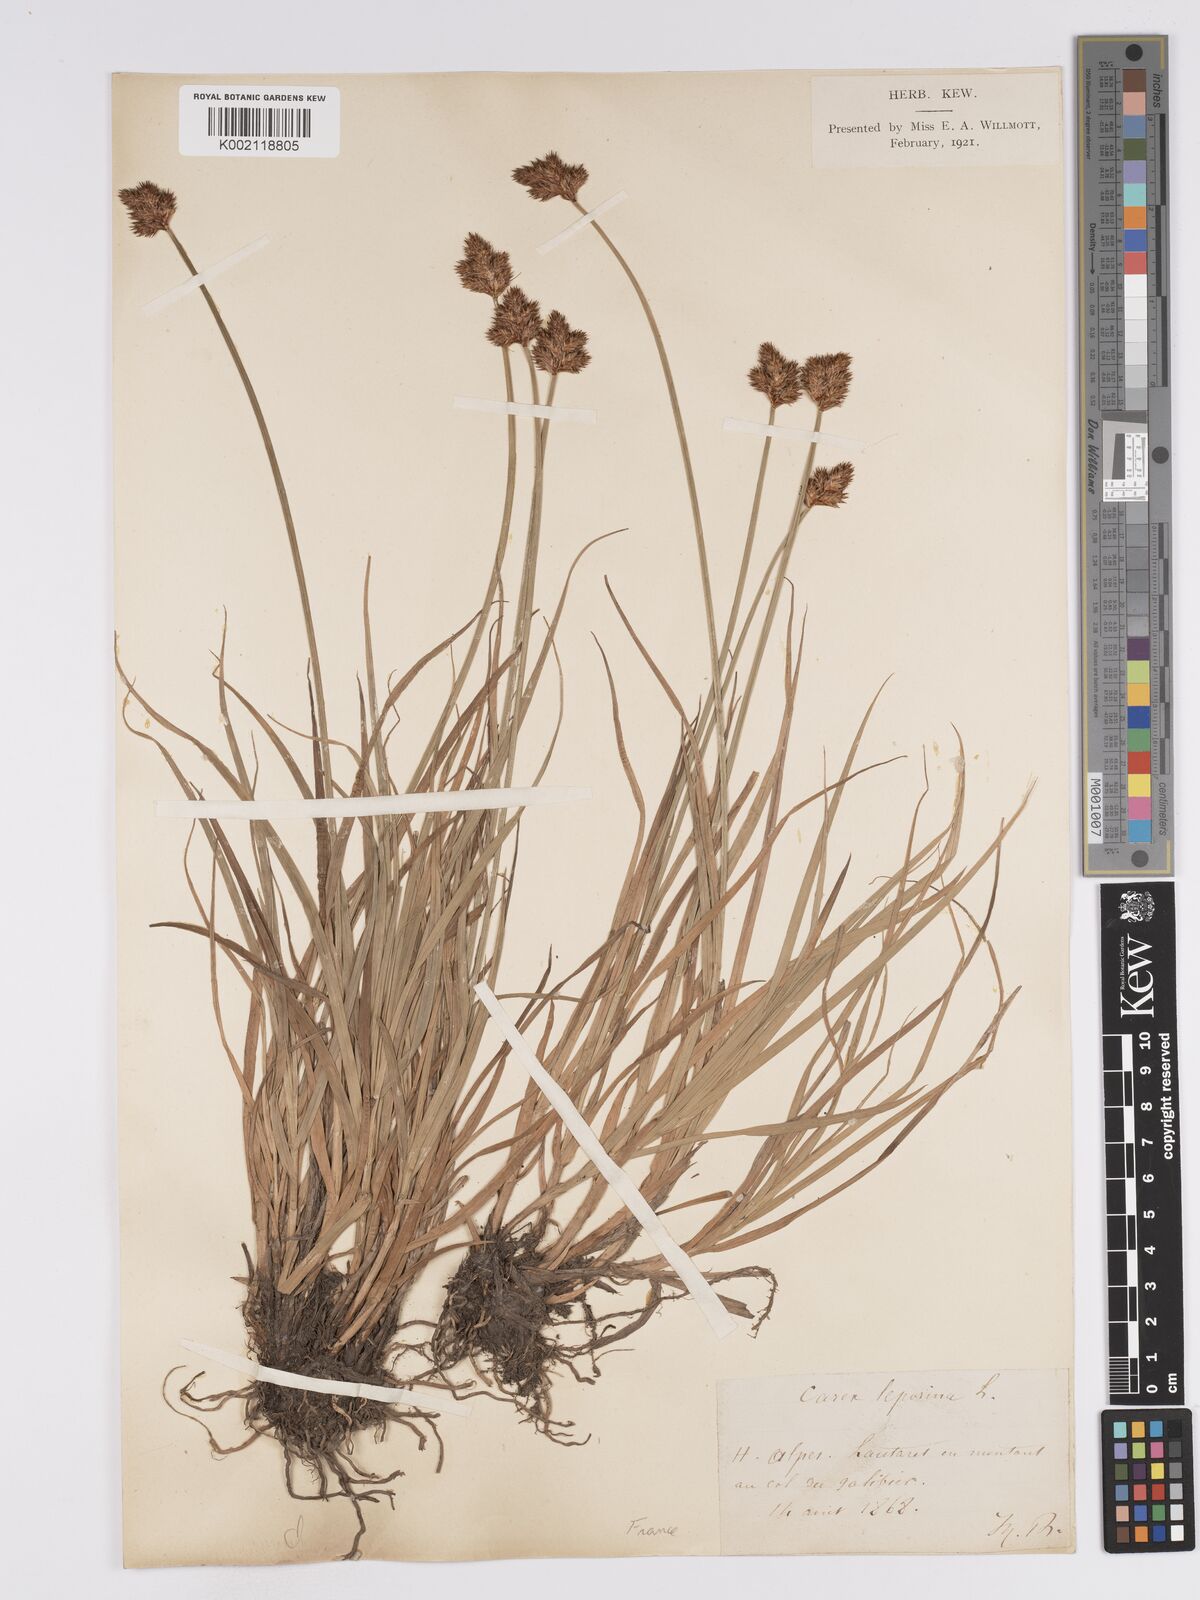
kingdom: Plantae
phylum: Tracheophyta
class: Liliopsida
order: Poales
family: Cyperaceae
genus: Carex
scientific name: Carex macloviana
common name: Falkland island sedge
